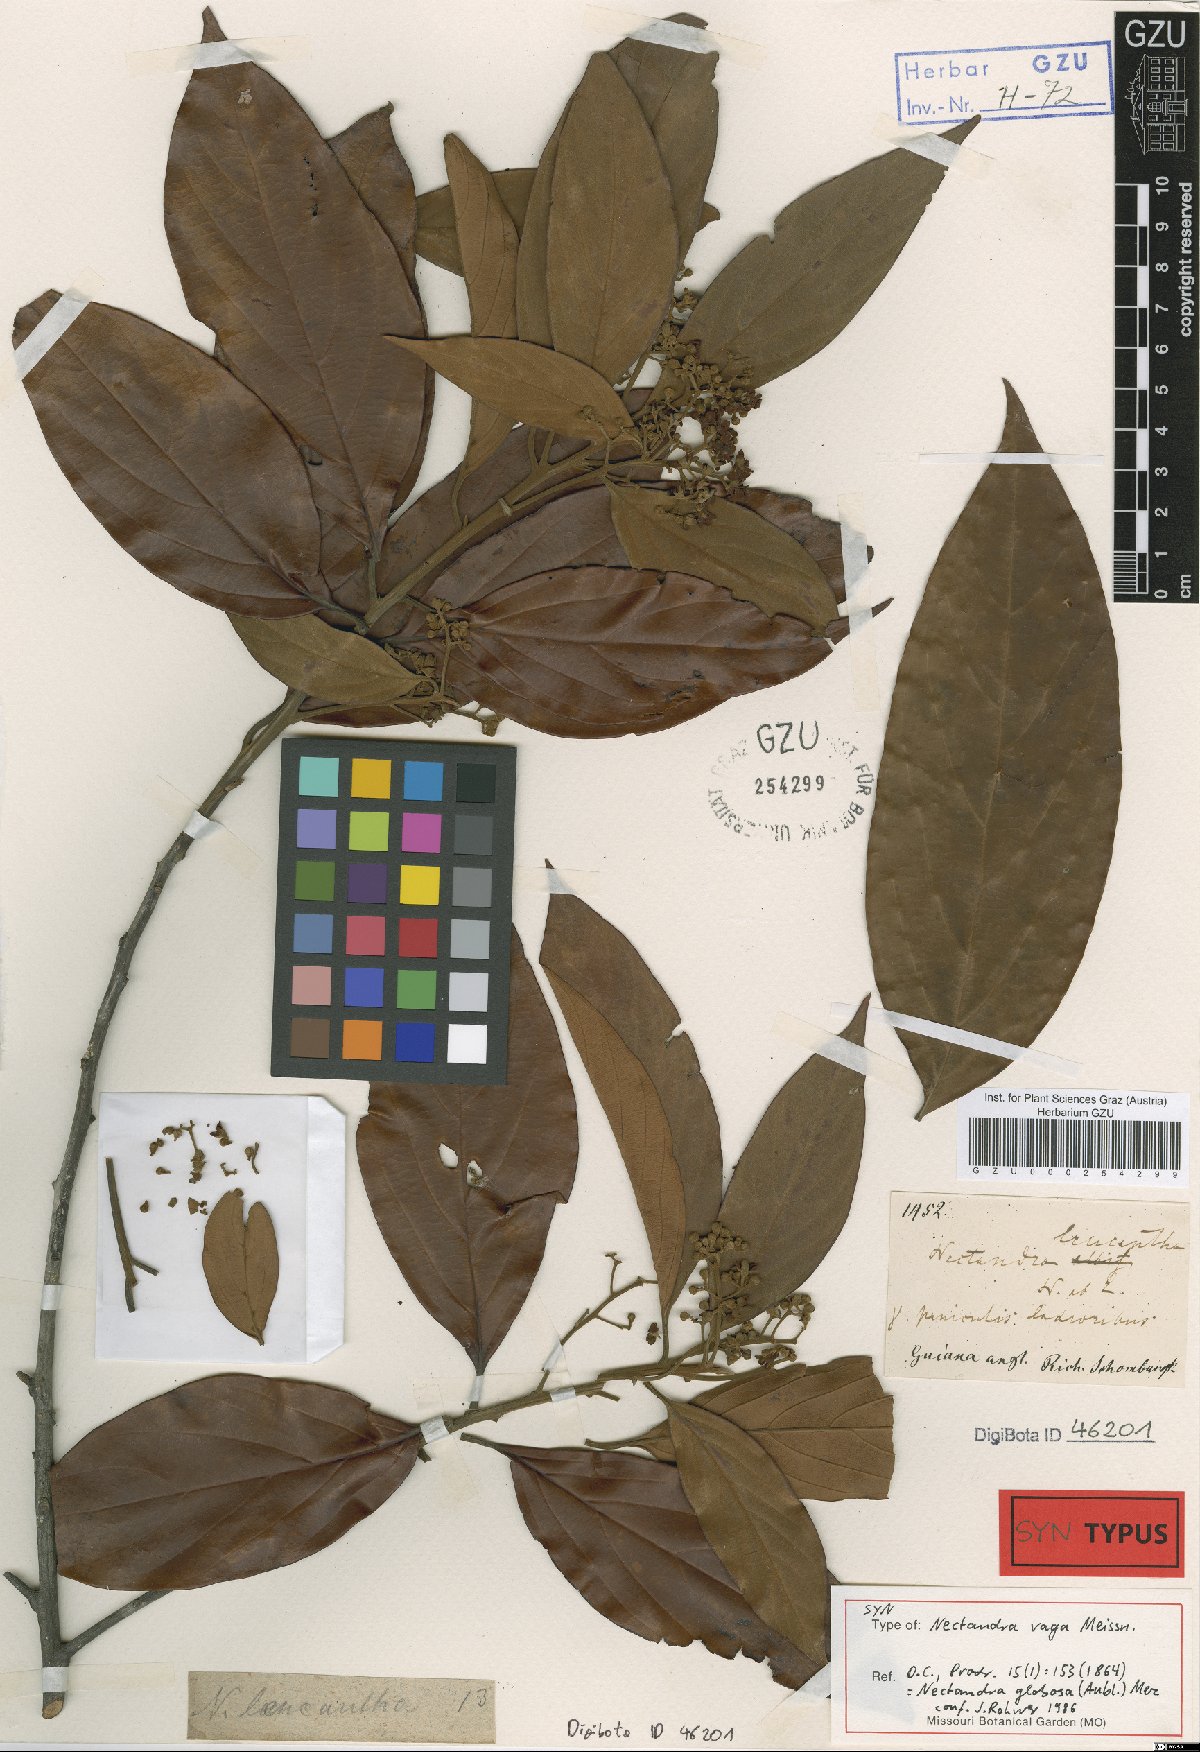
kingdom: Plantae
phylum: Tracheophyta
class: Magnoliopsida
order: Laurales
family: Lauraceae
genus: Nectandra
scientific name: Nectandra globosa
